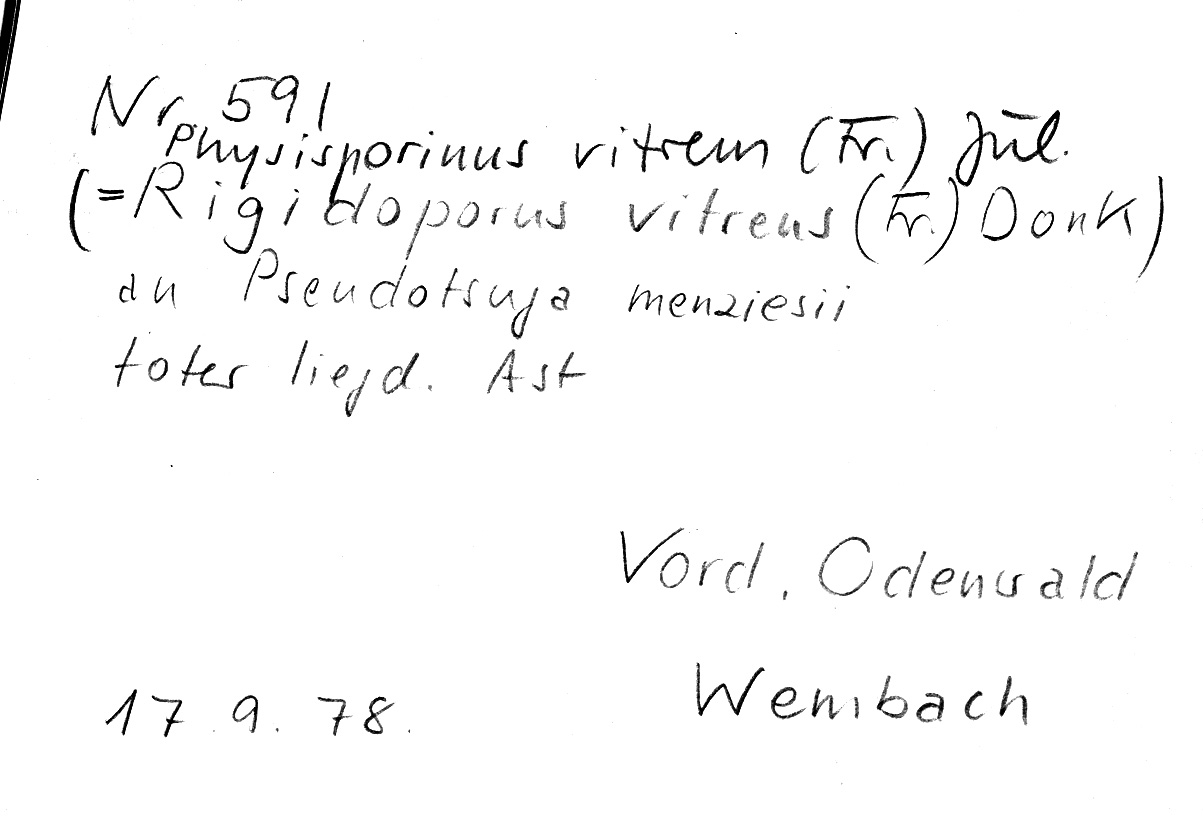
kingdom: Plantae
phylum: Tracheophyta
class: Pinopsida
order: Pinales
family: Pinaceae
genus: Pseudotsuga
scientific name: Pseudotsuga menziesii
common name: Douglas fir
